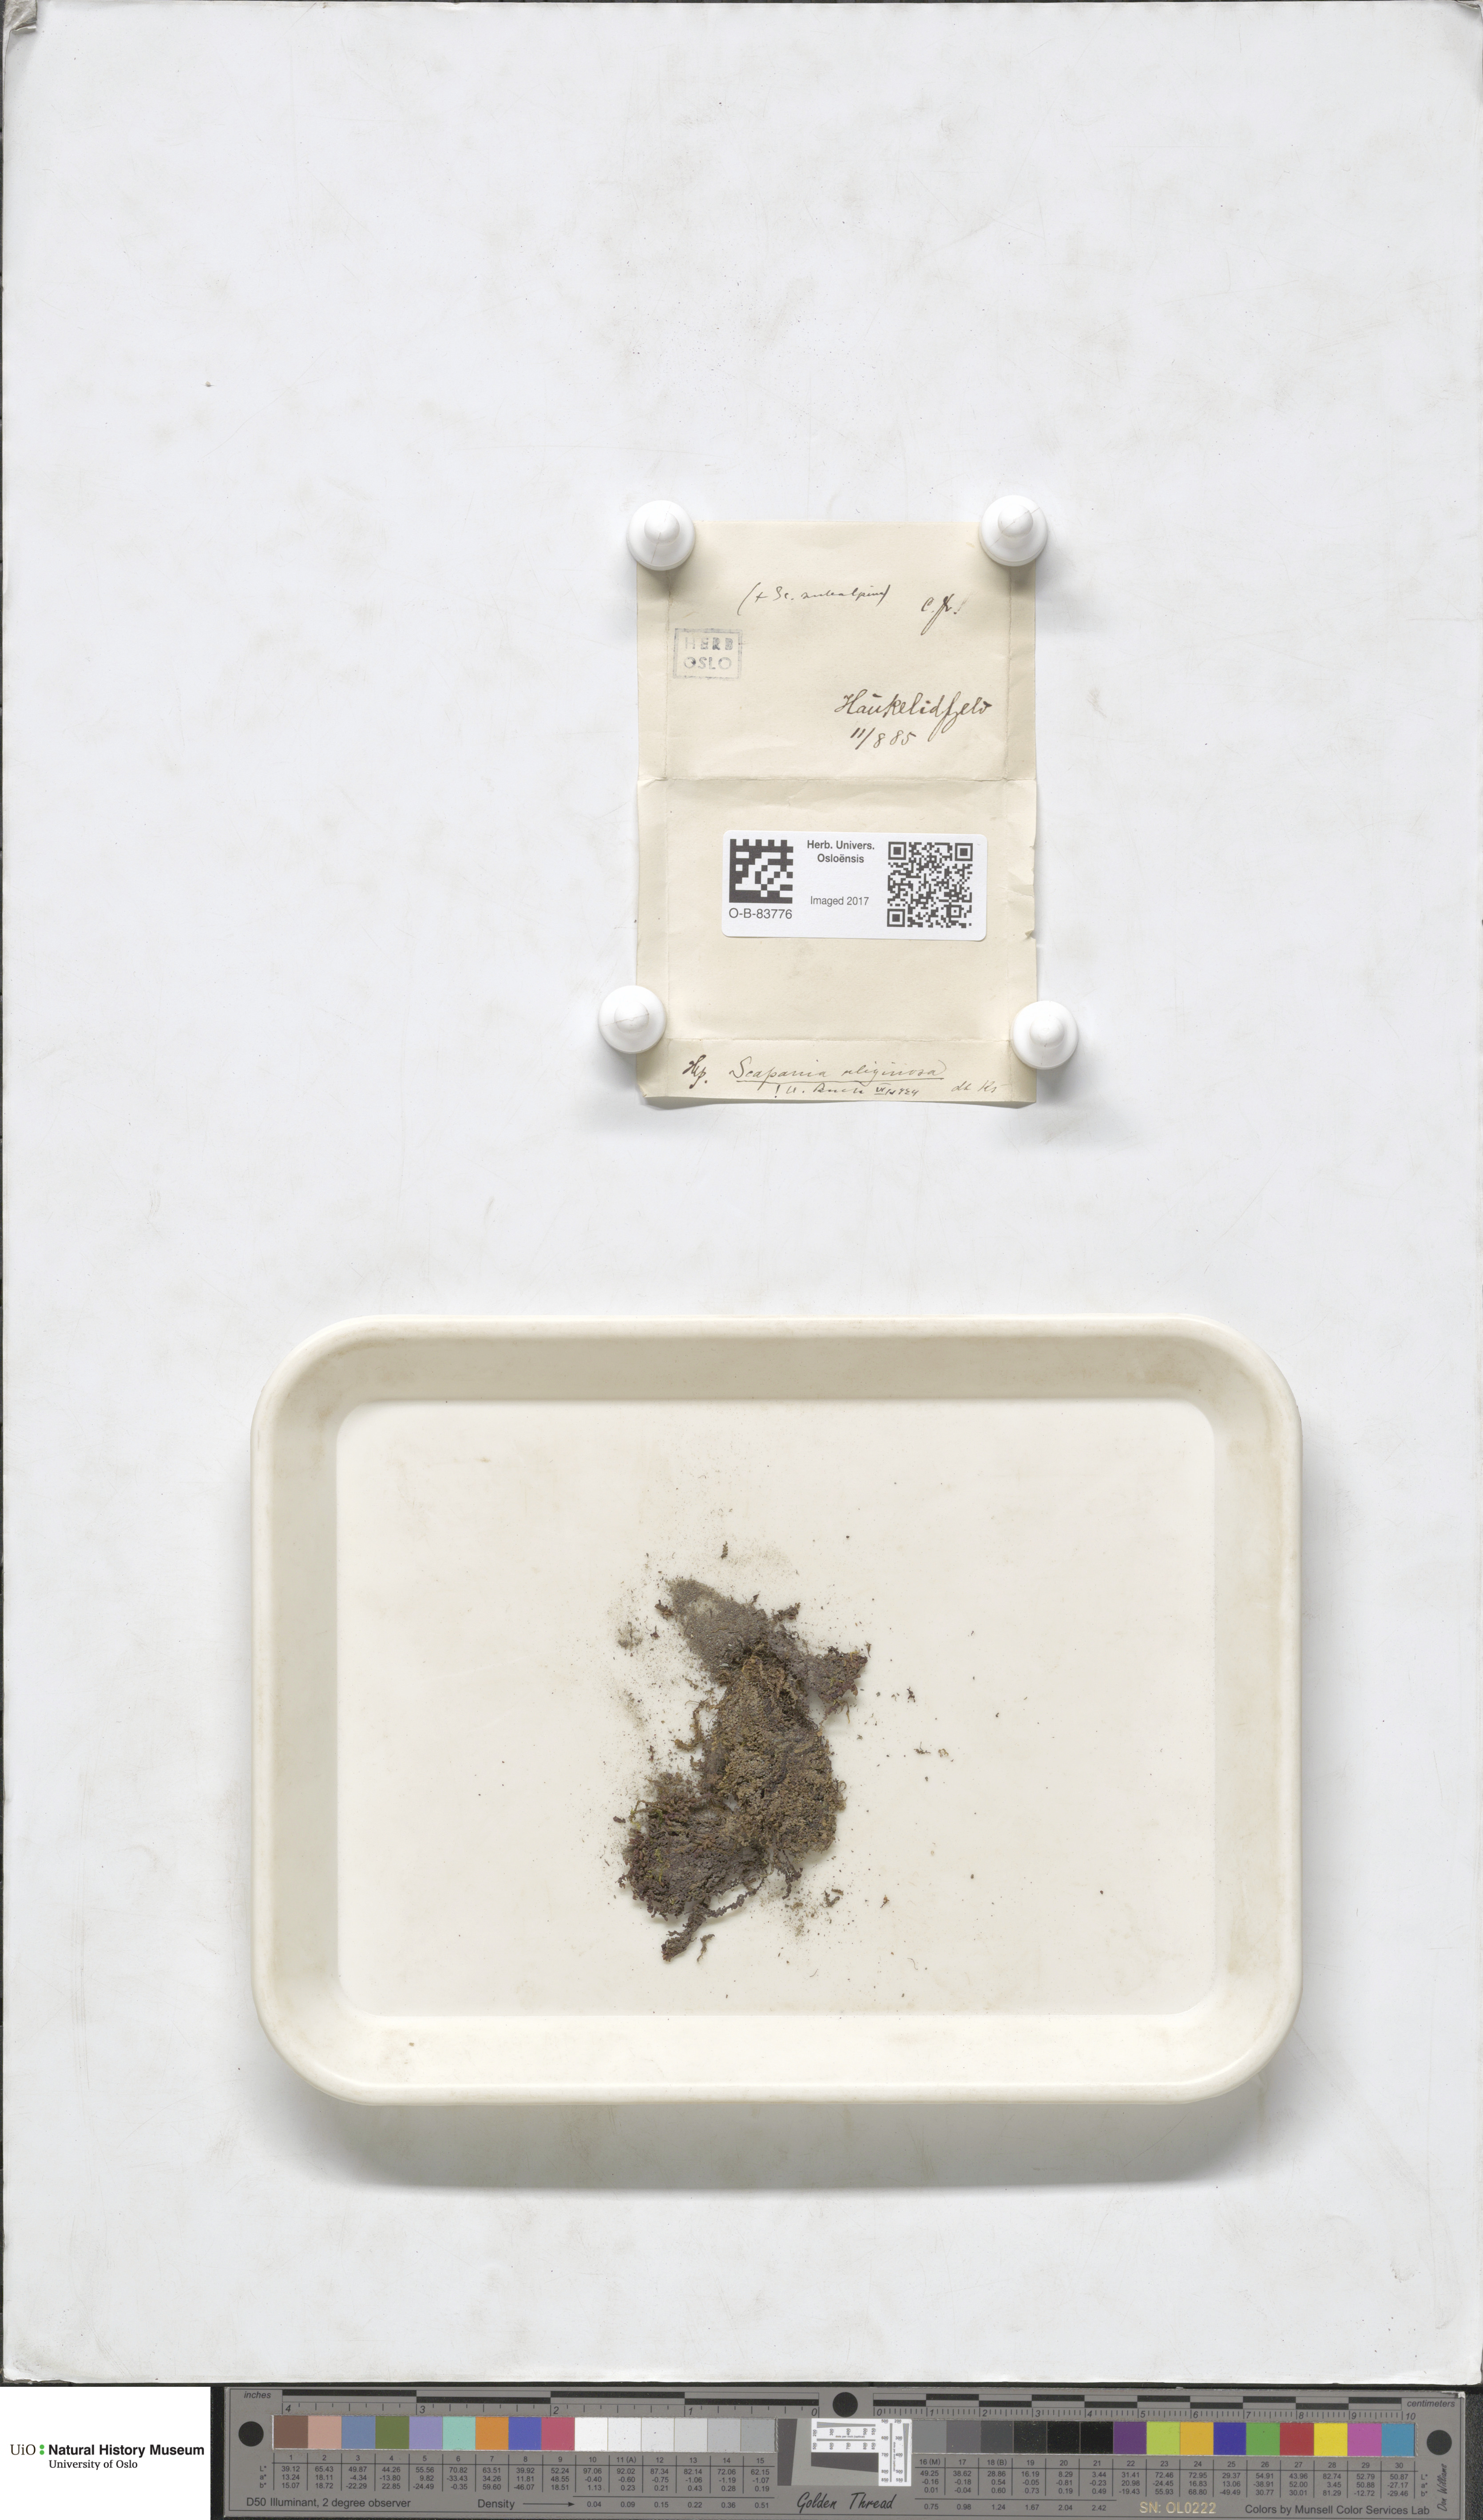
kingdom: Plantae
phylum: Marchantiophyta
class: Jungermanniopsida
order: Jungermanniales
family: Scapaniaceae
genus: Scapania
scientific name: Scapania uliginosa
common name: Marsh earwort
